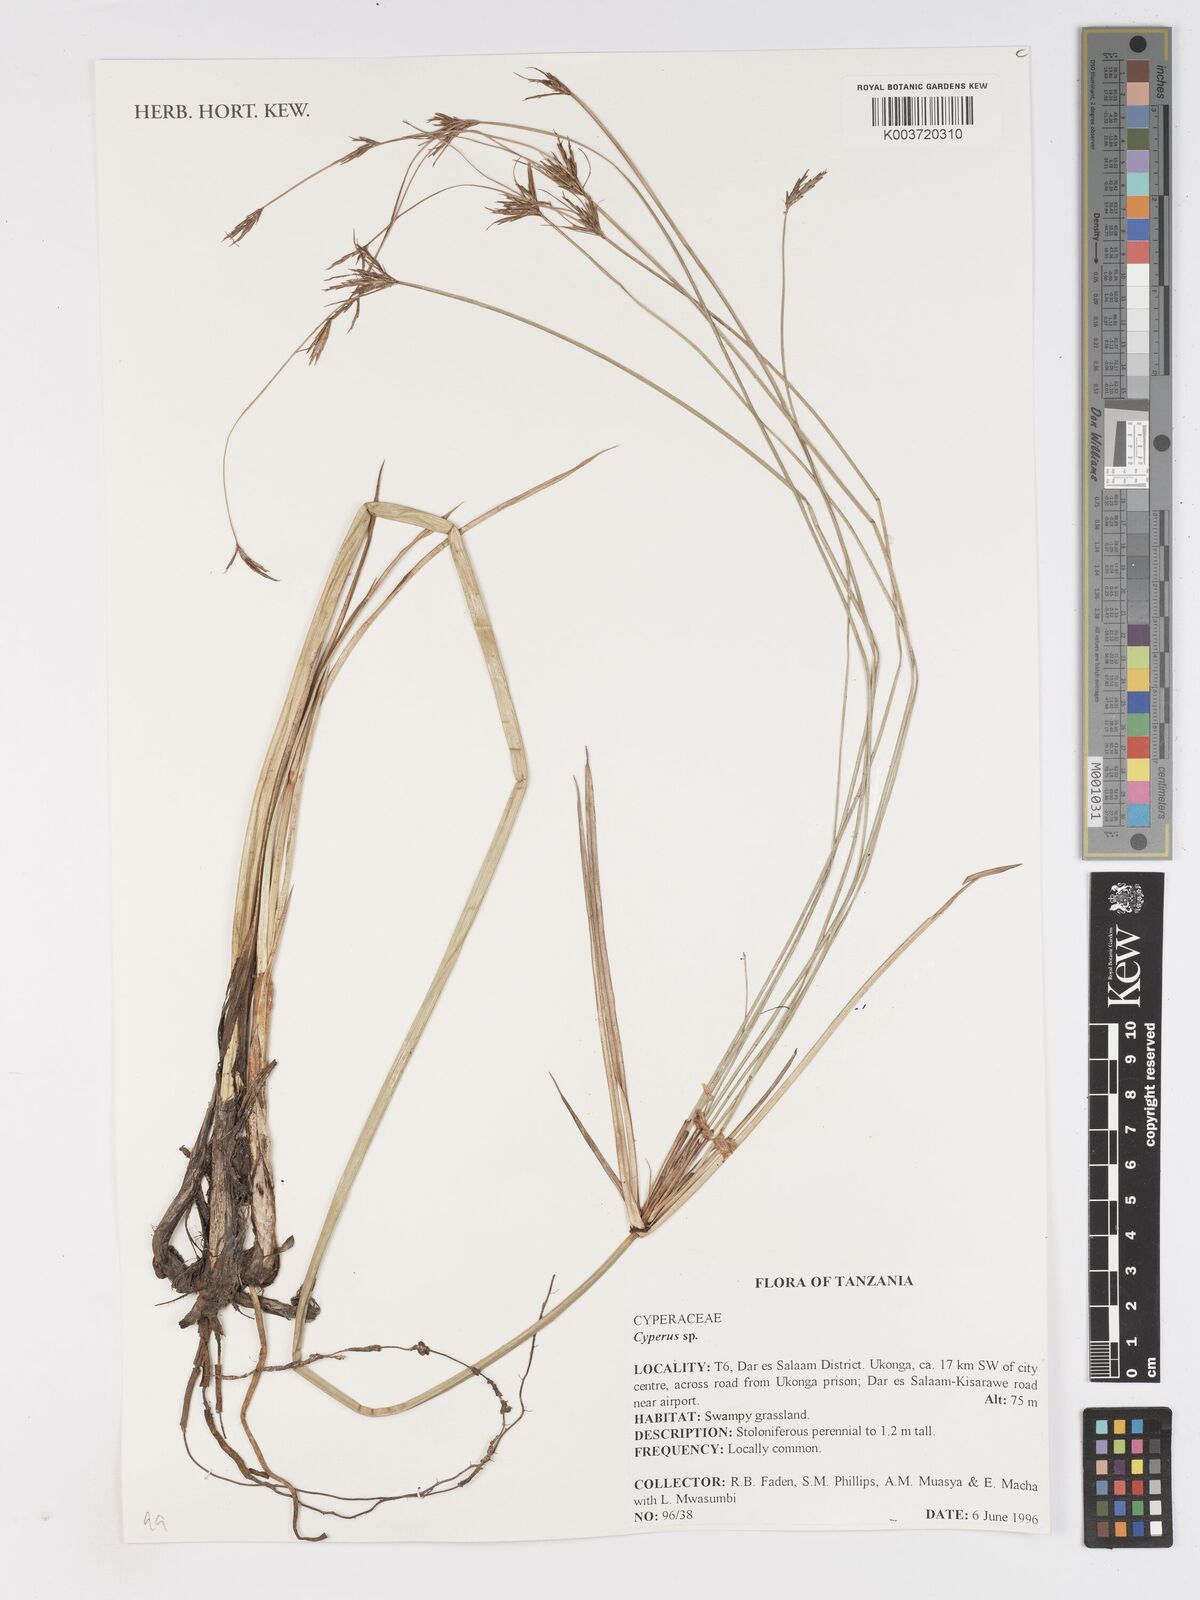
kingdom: Plantae
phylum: Tracheophyta
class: Liliopsida
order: Poales
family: Cyperaceae
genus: Cyperus
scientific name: Cyperus
